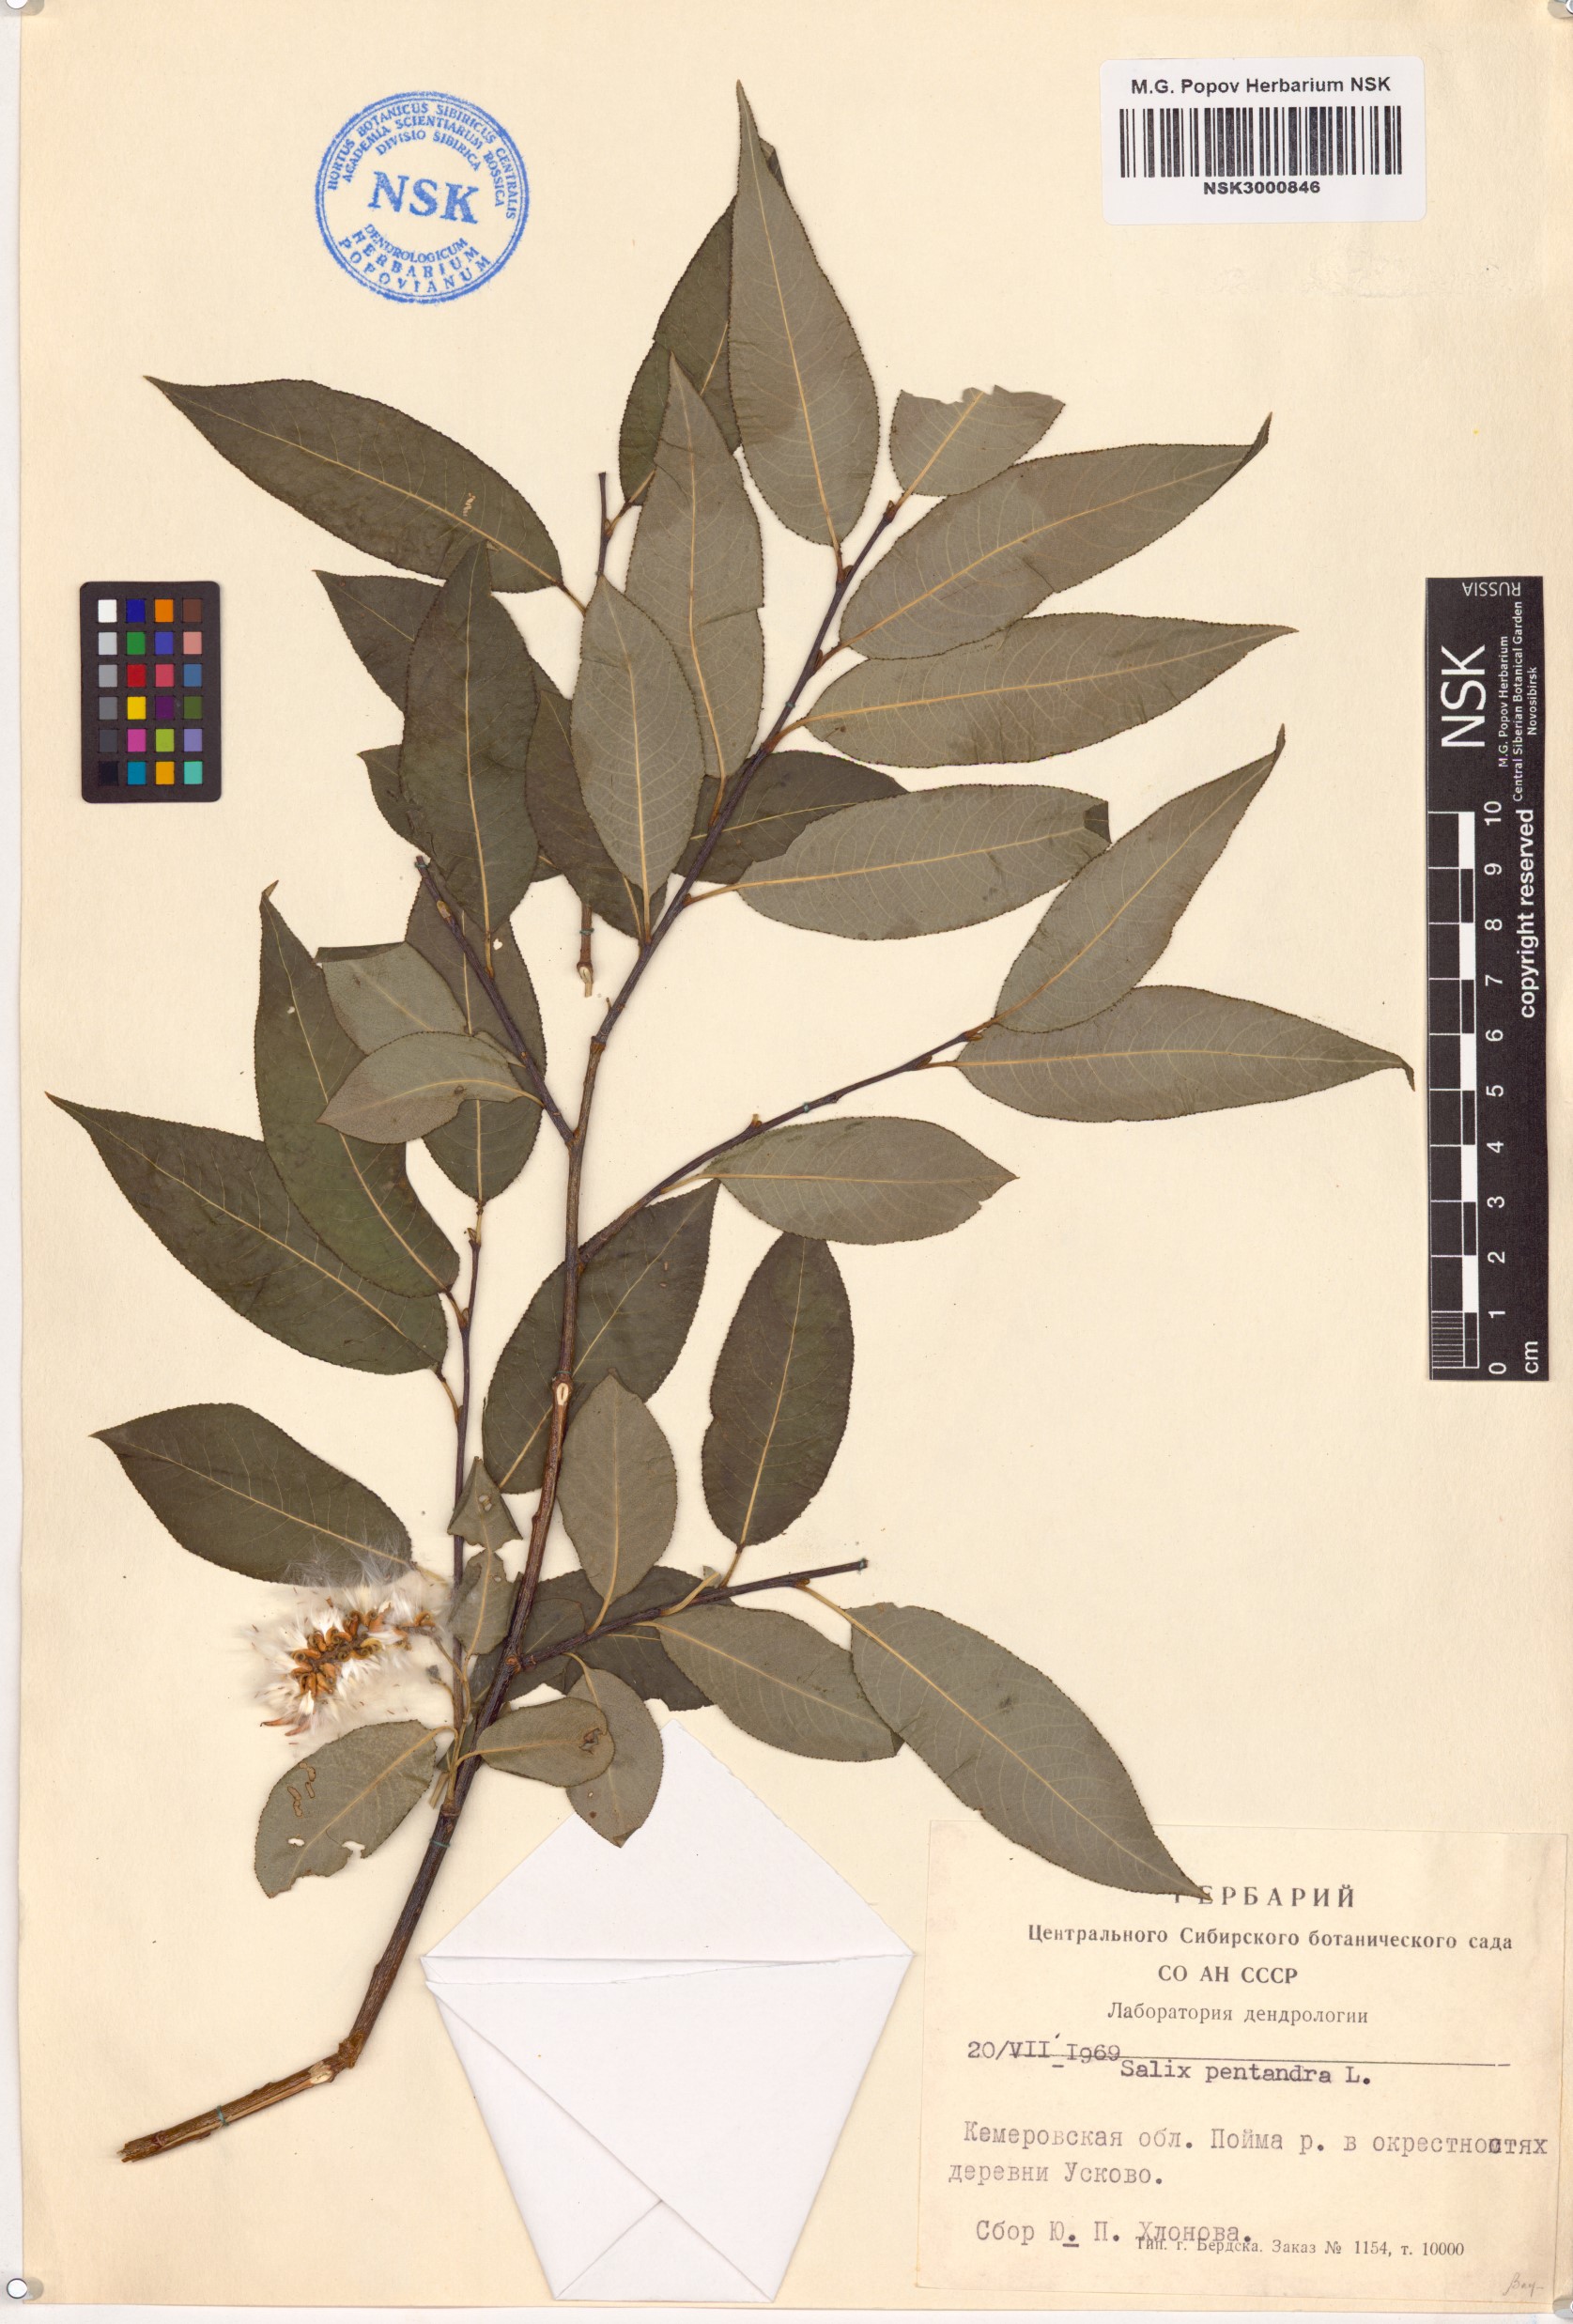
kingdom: Plantae
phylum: Tracheophyta
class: Magnoliopsida
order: Malpighiales
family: Salicaceae
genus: Salix
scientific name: Salix pentandra
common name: Bay willow
